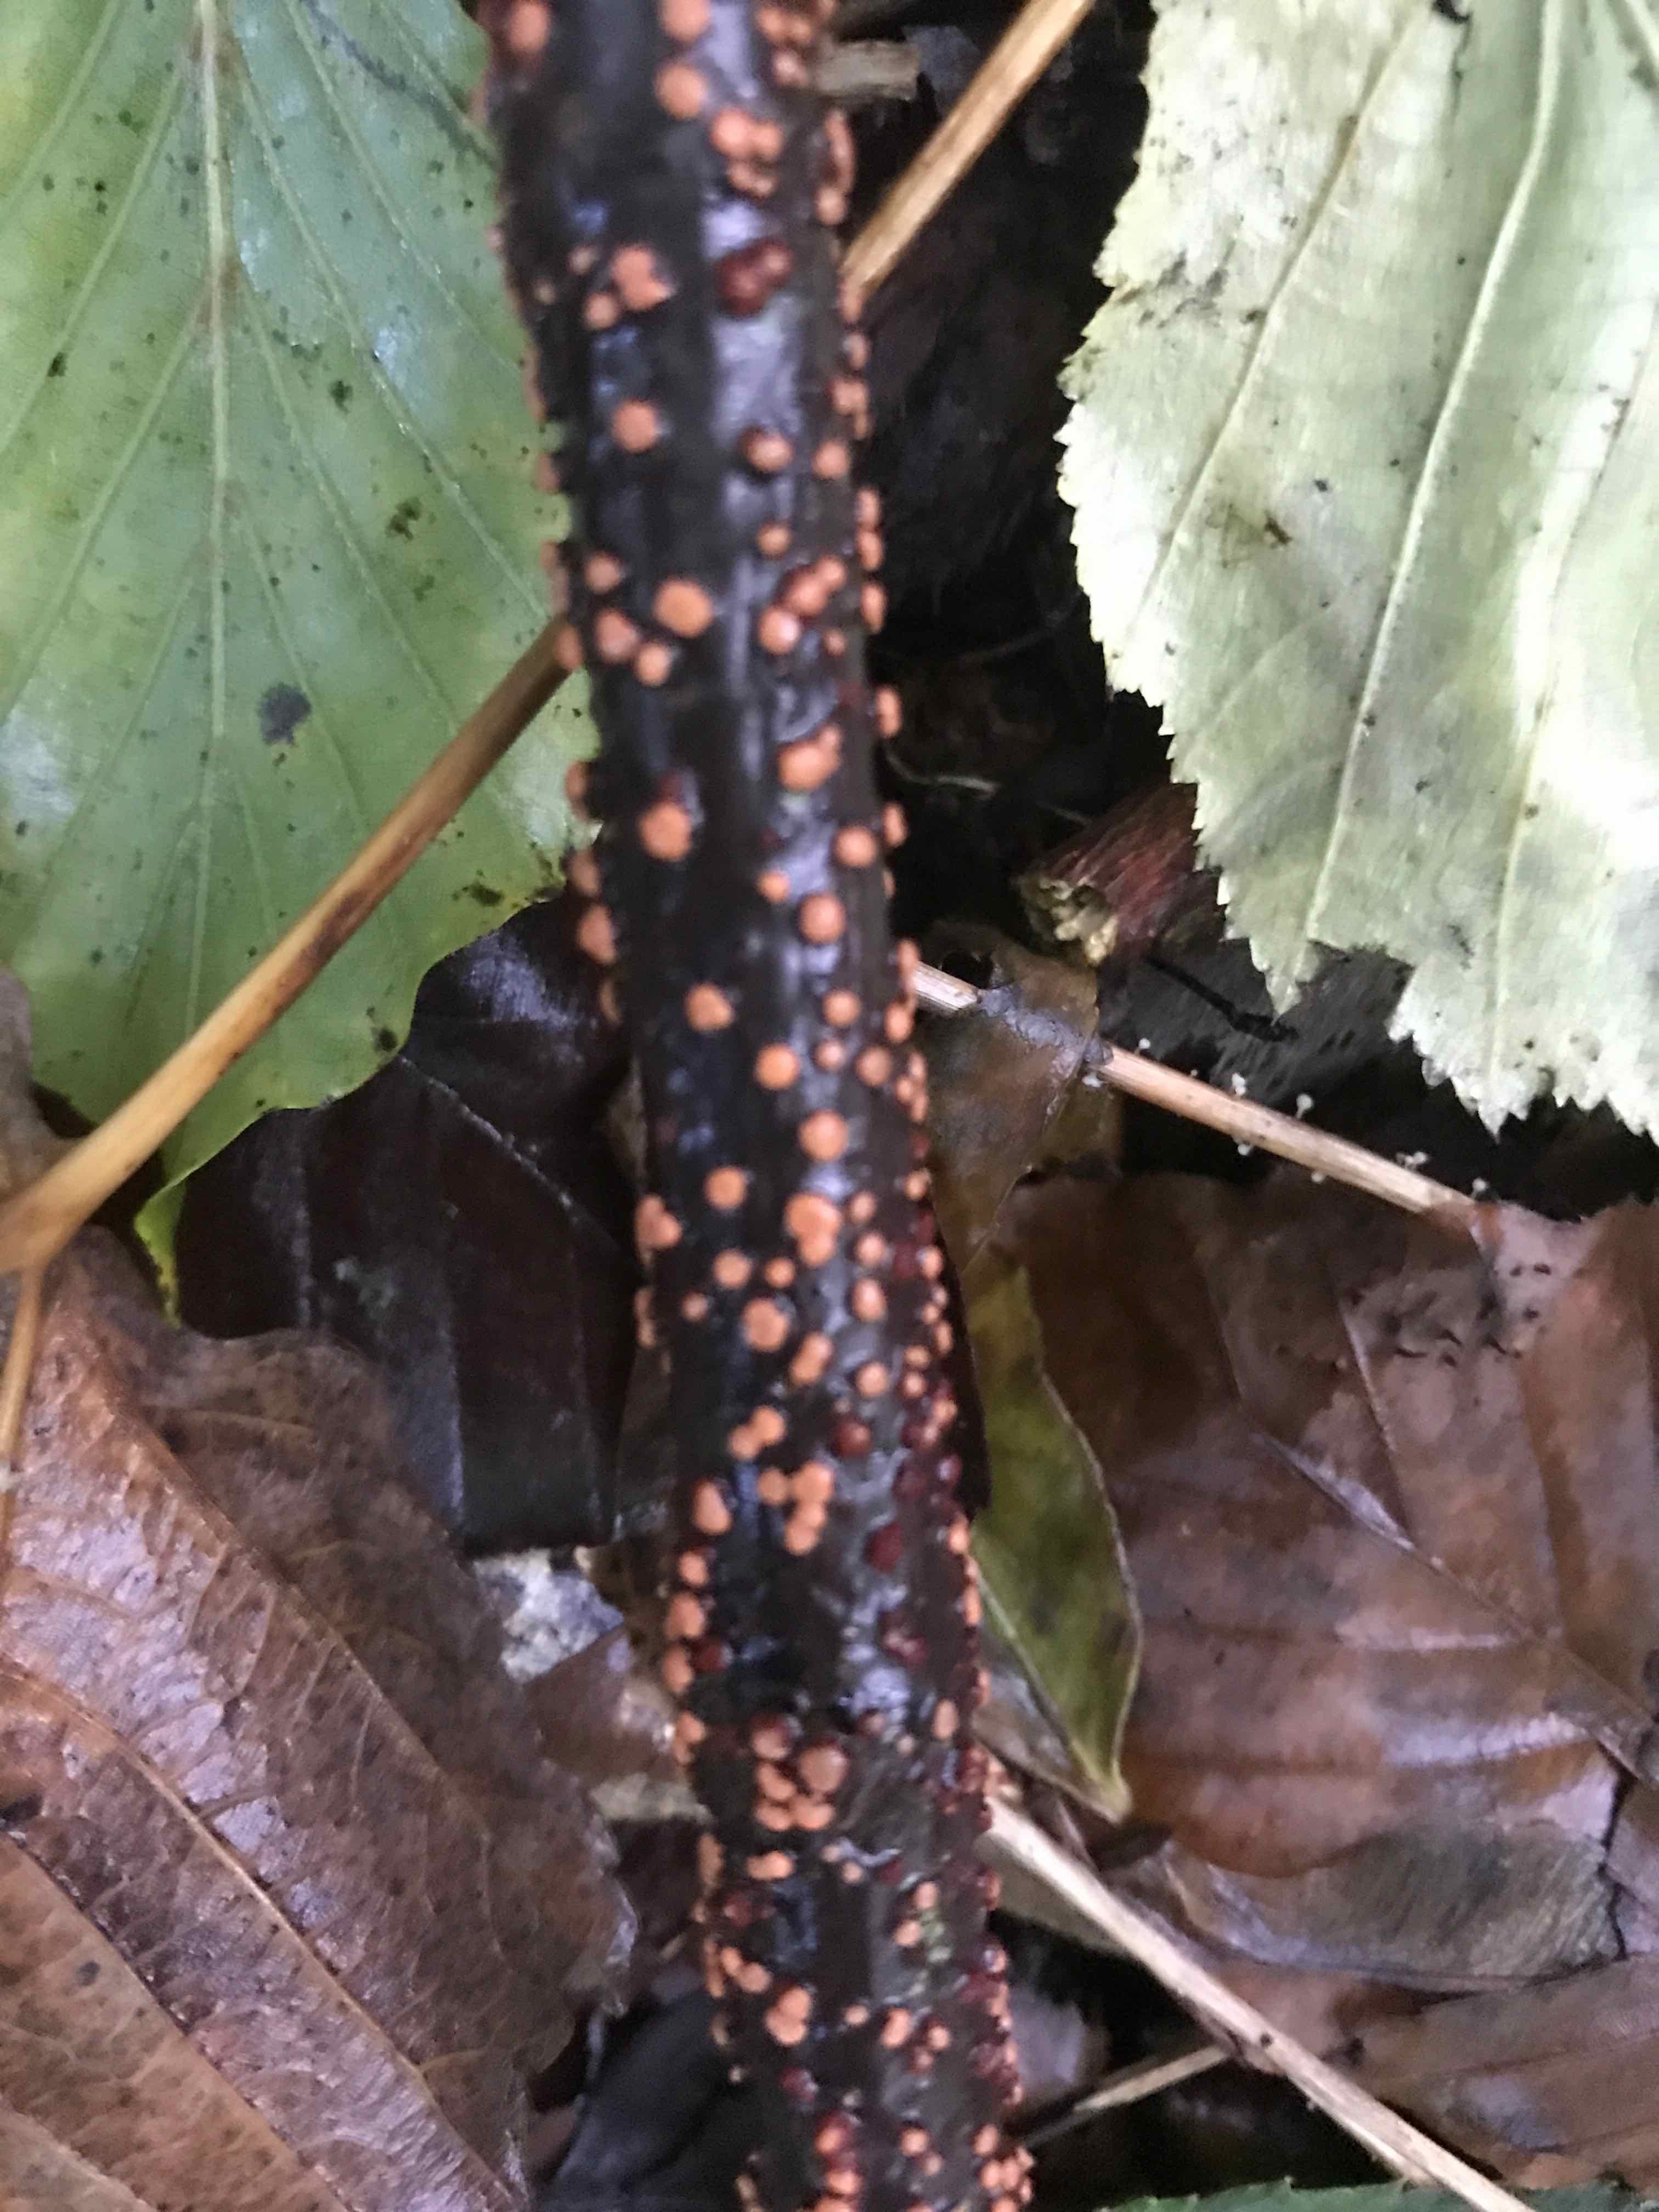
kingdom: Fungi
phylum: Ascomycota
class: Sordariomycetes
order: Hypocreales
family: Nectriaceae
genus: Nectria
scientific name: Nectria cinnabarina
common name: almindelig cinnobersvamp
